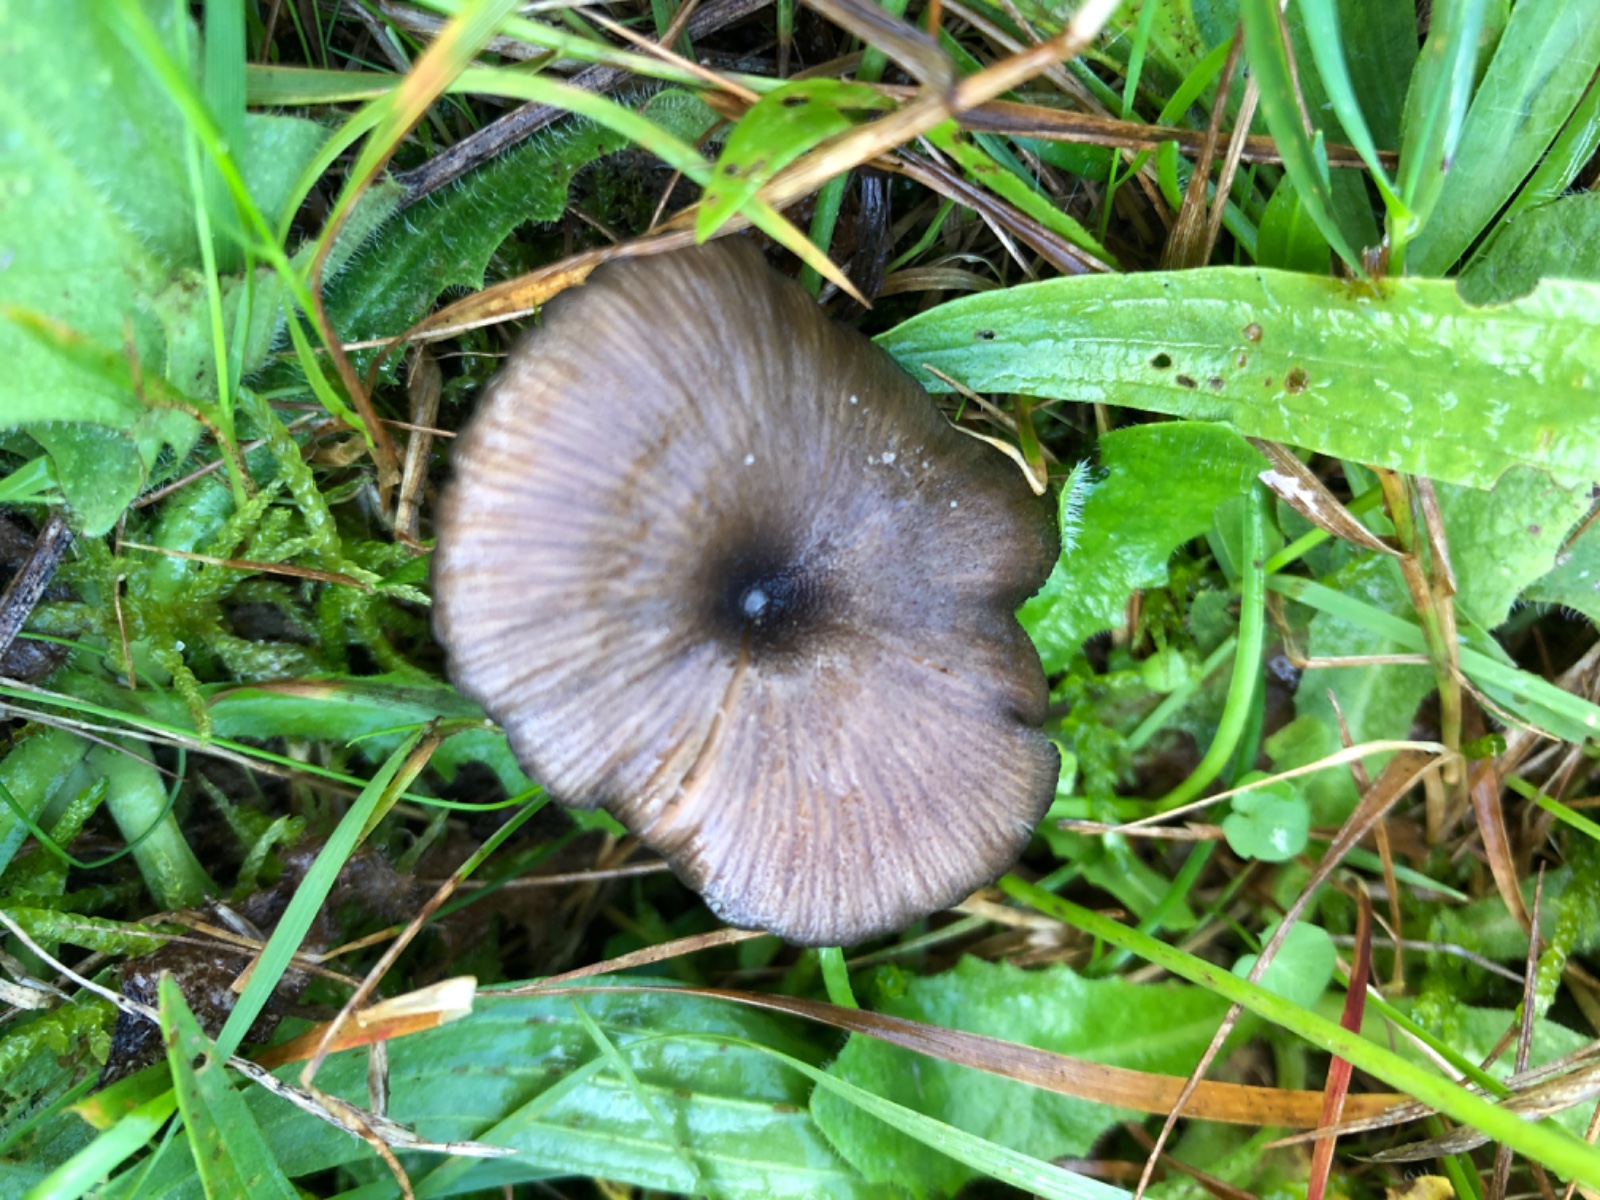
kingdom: Fungi
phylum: Basidiomycota
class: Agaricomycetes
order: Agaricales
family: Entolomataceae
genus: Entoloma
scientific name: Entoloma
